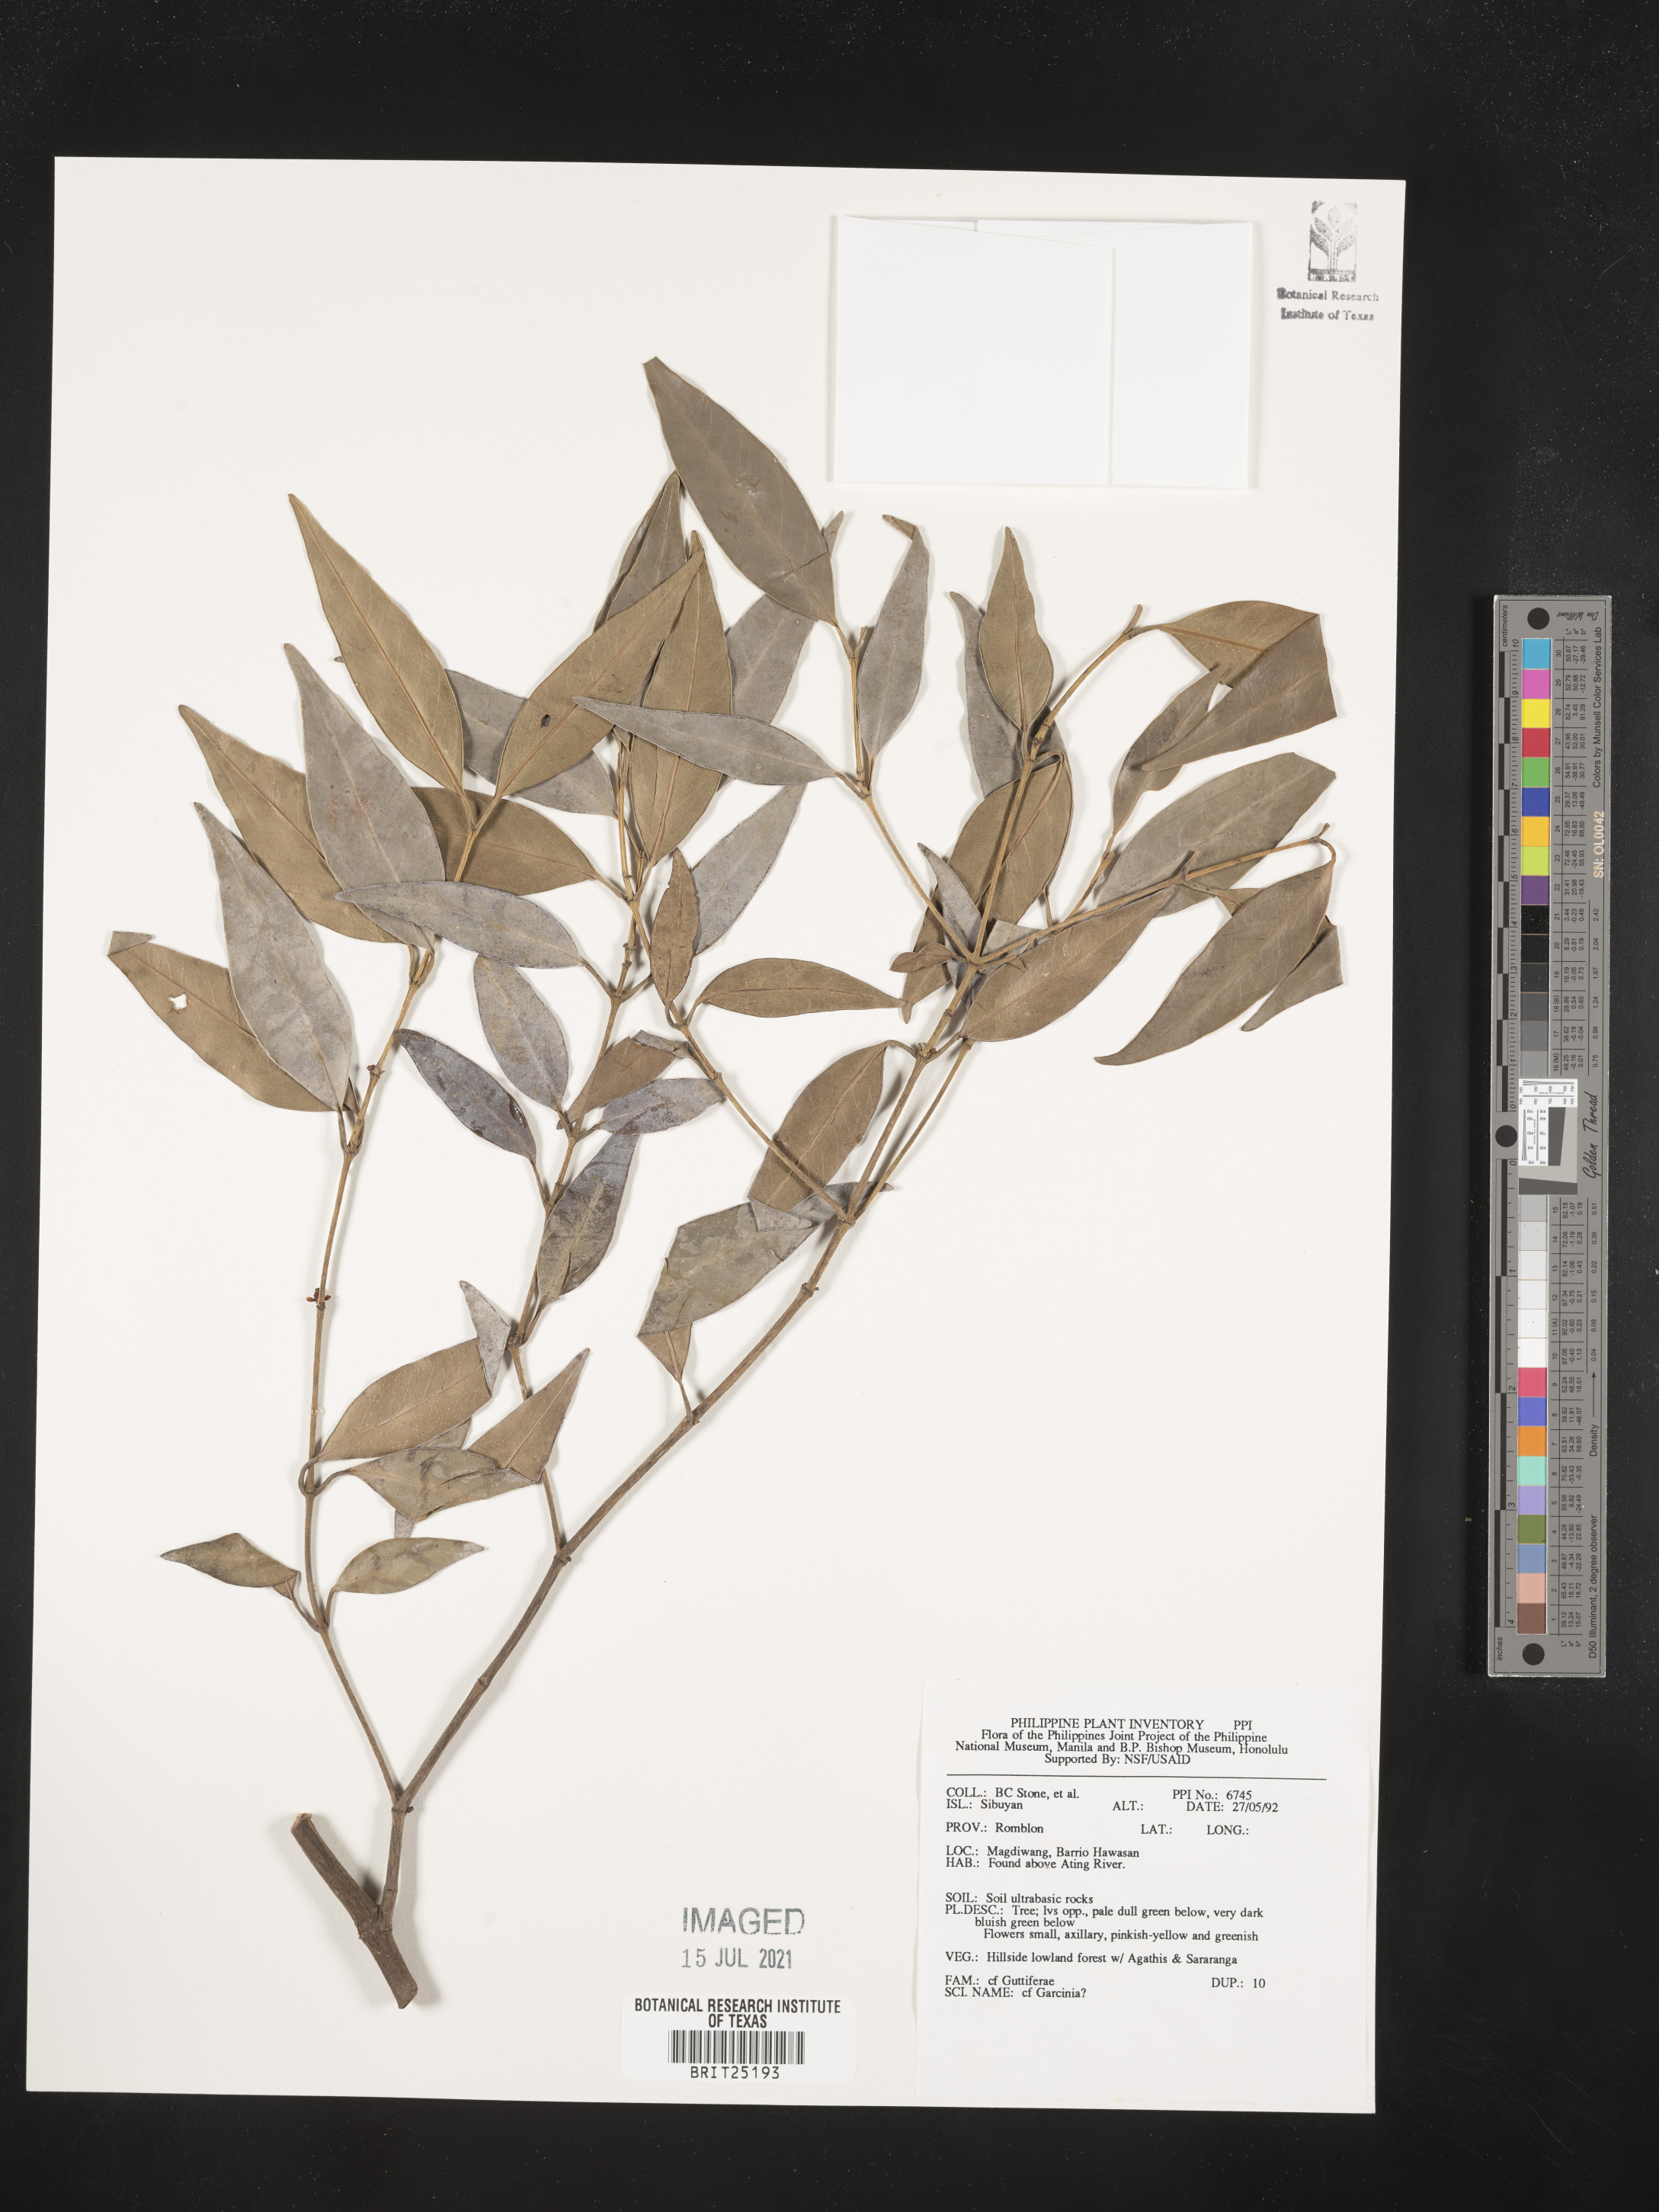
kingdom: Plantae
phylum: Tracheophyta
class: Magnoliopsida
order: Malpighiales
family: Clusiaceae
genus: Garcinia
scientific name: Garcinia
